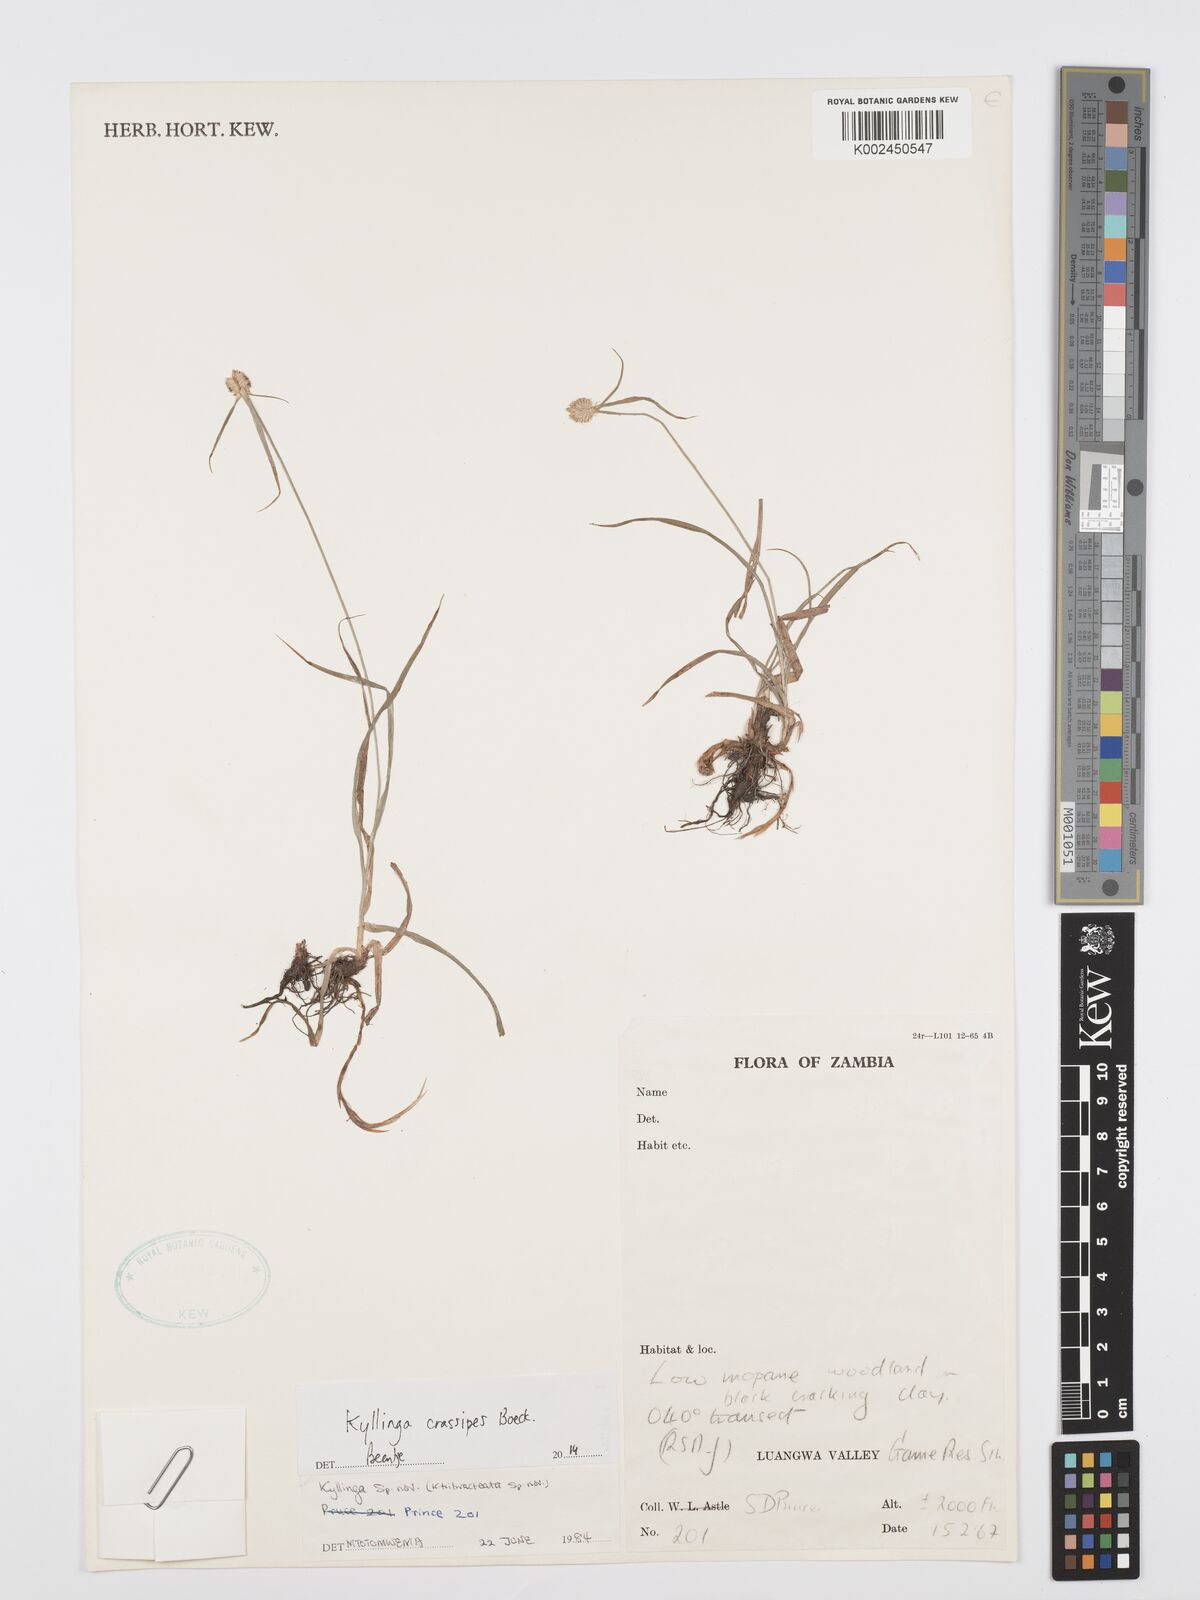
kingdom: Plantae
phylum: Tracheophyta
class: Liliopsida
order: Poales
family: Cyperaceae
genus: Cyperus
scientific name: Cyperus crassipes
